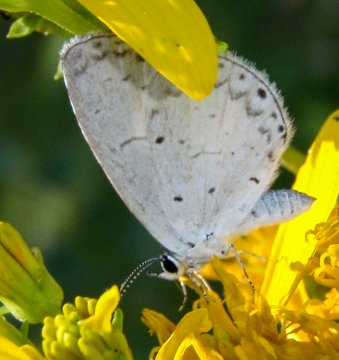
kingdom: Animalia
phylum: Arthropoda
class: Insecta
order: Lepidoptera
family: Lycaenidae
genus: Cyaniris
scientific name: Cyaniris neglecta
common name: Summer Azure
